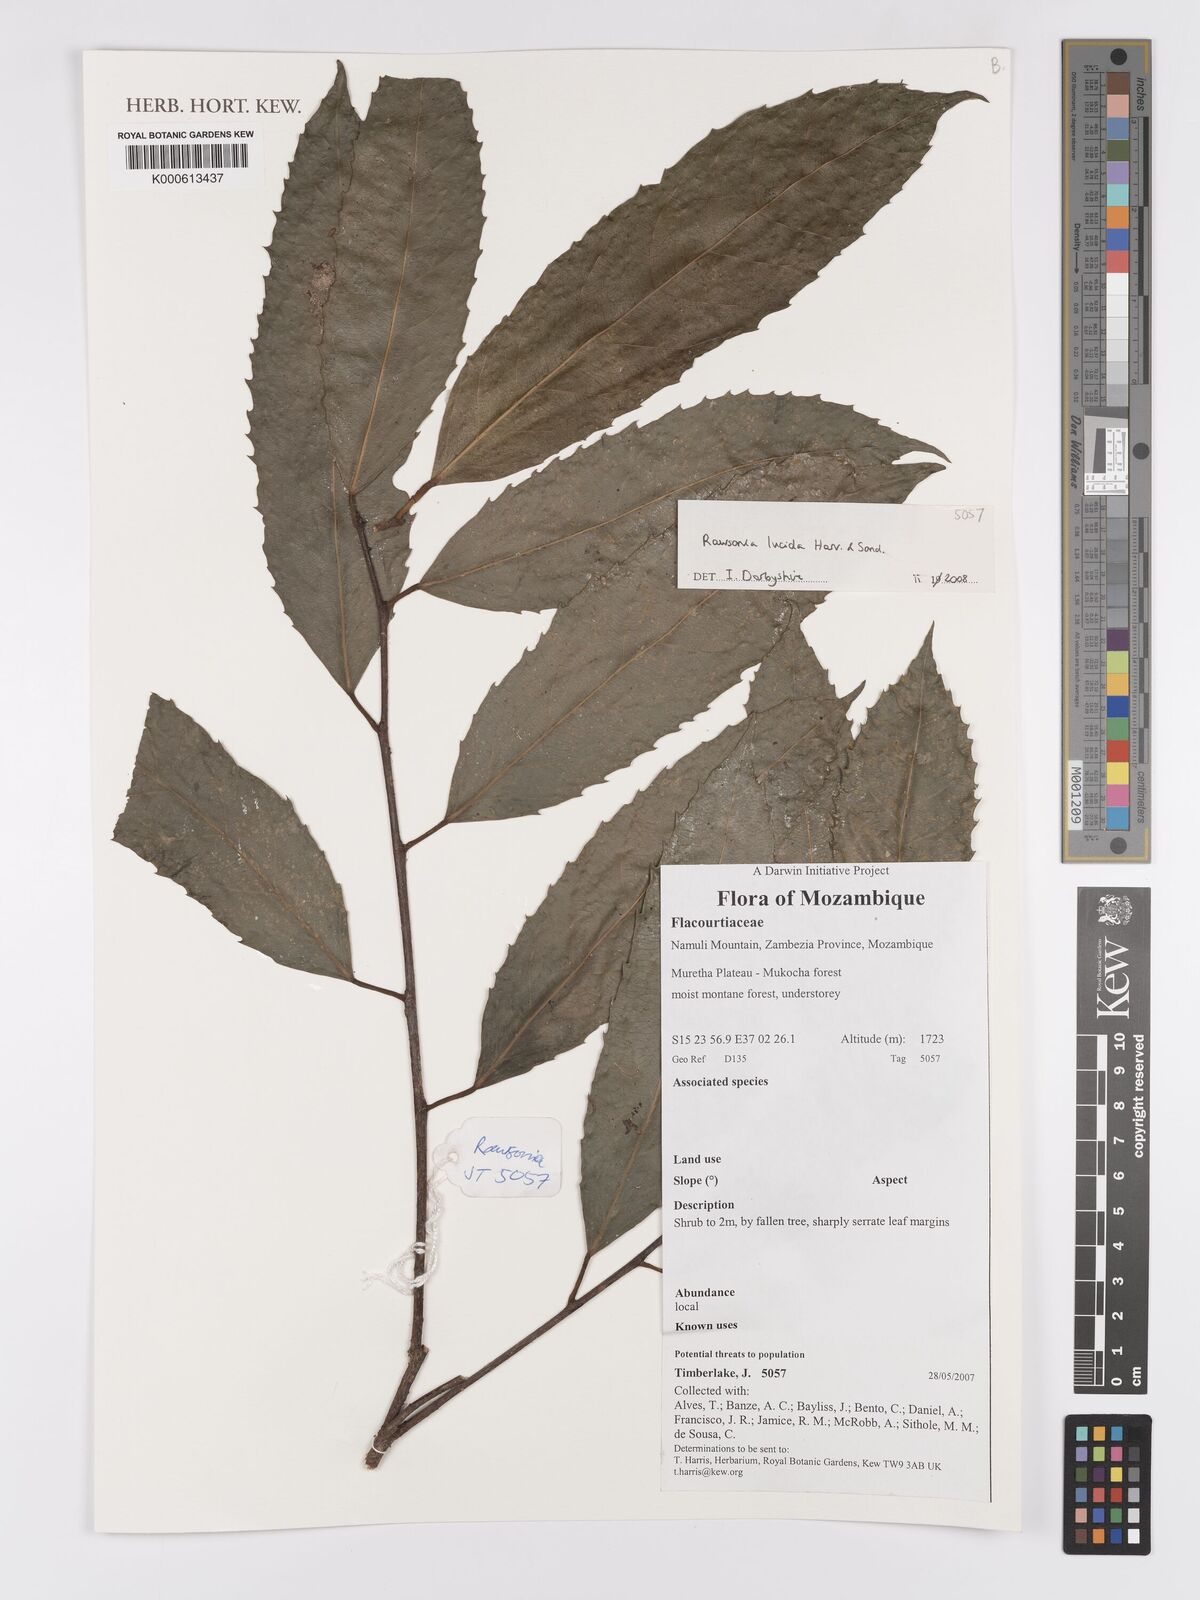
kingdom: Plantae
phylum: Tracheophyta
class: Magnoliopsida
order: Malpighiales
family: Achariaceae
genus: Rawsonia
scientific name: Rawsonia lucida
